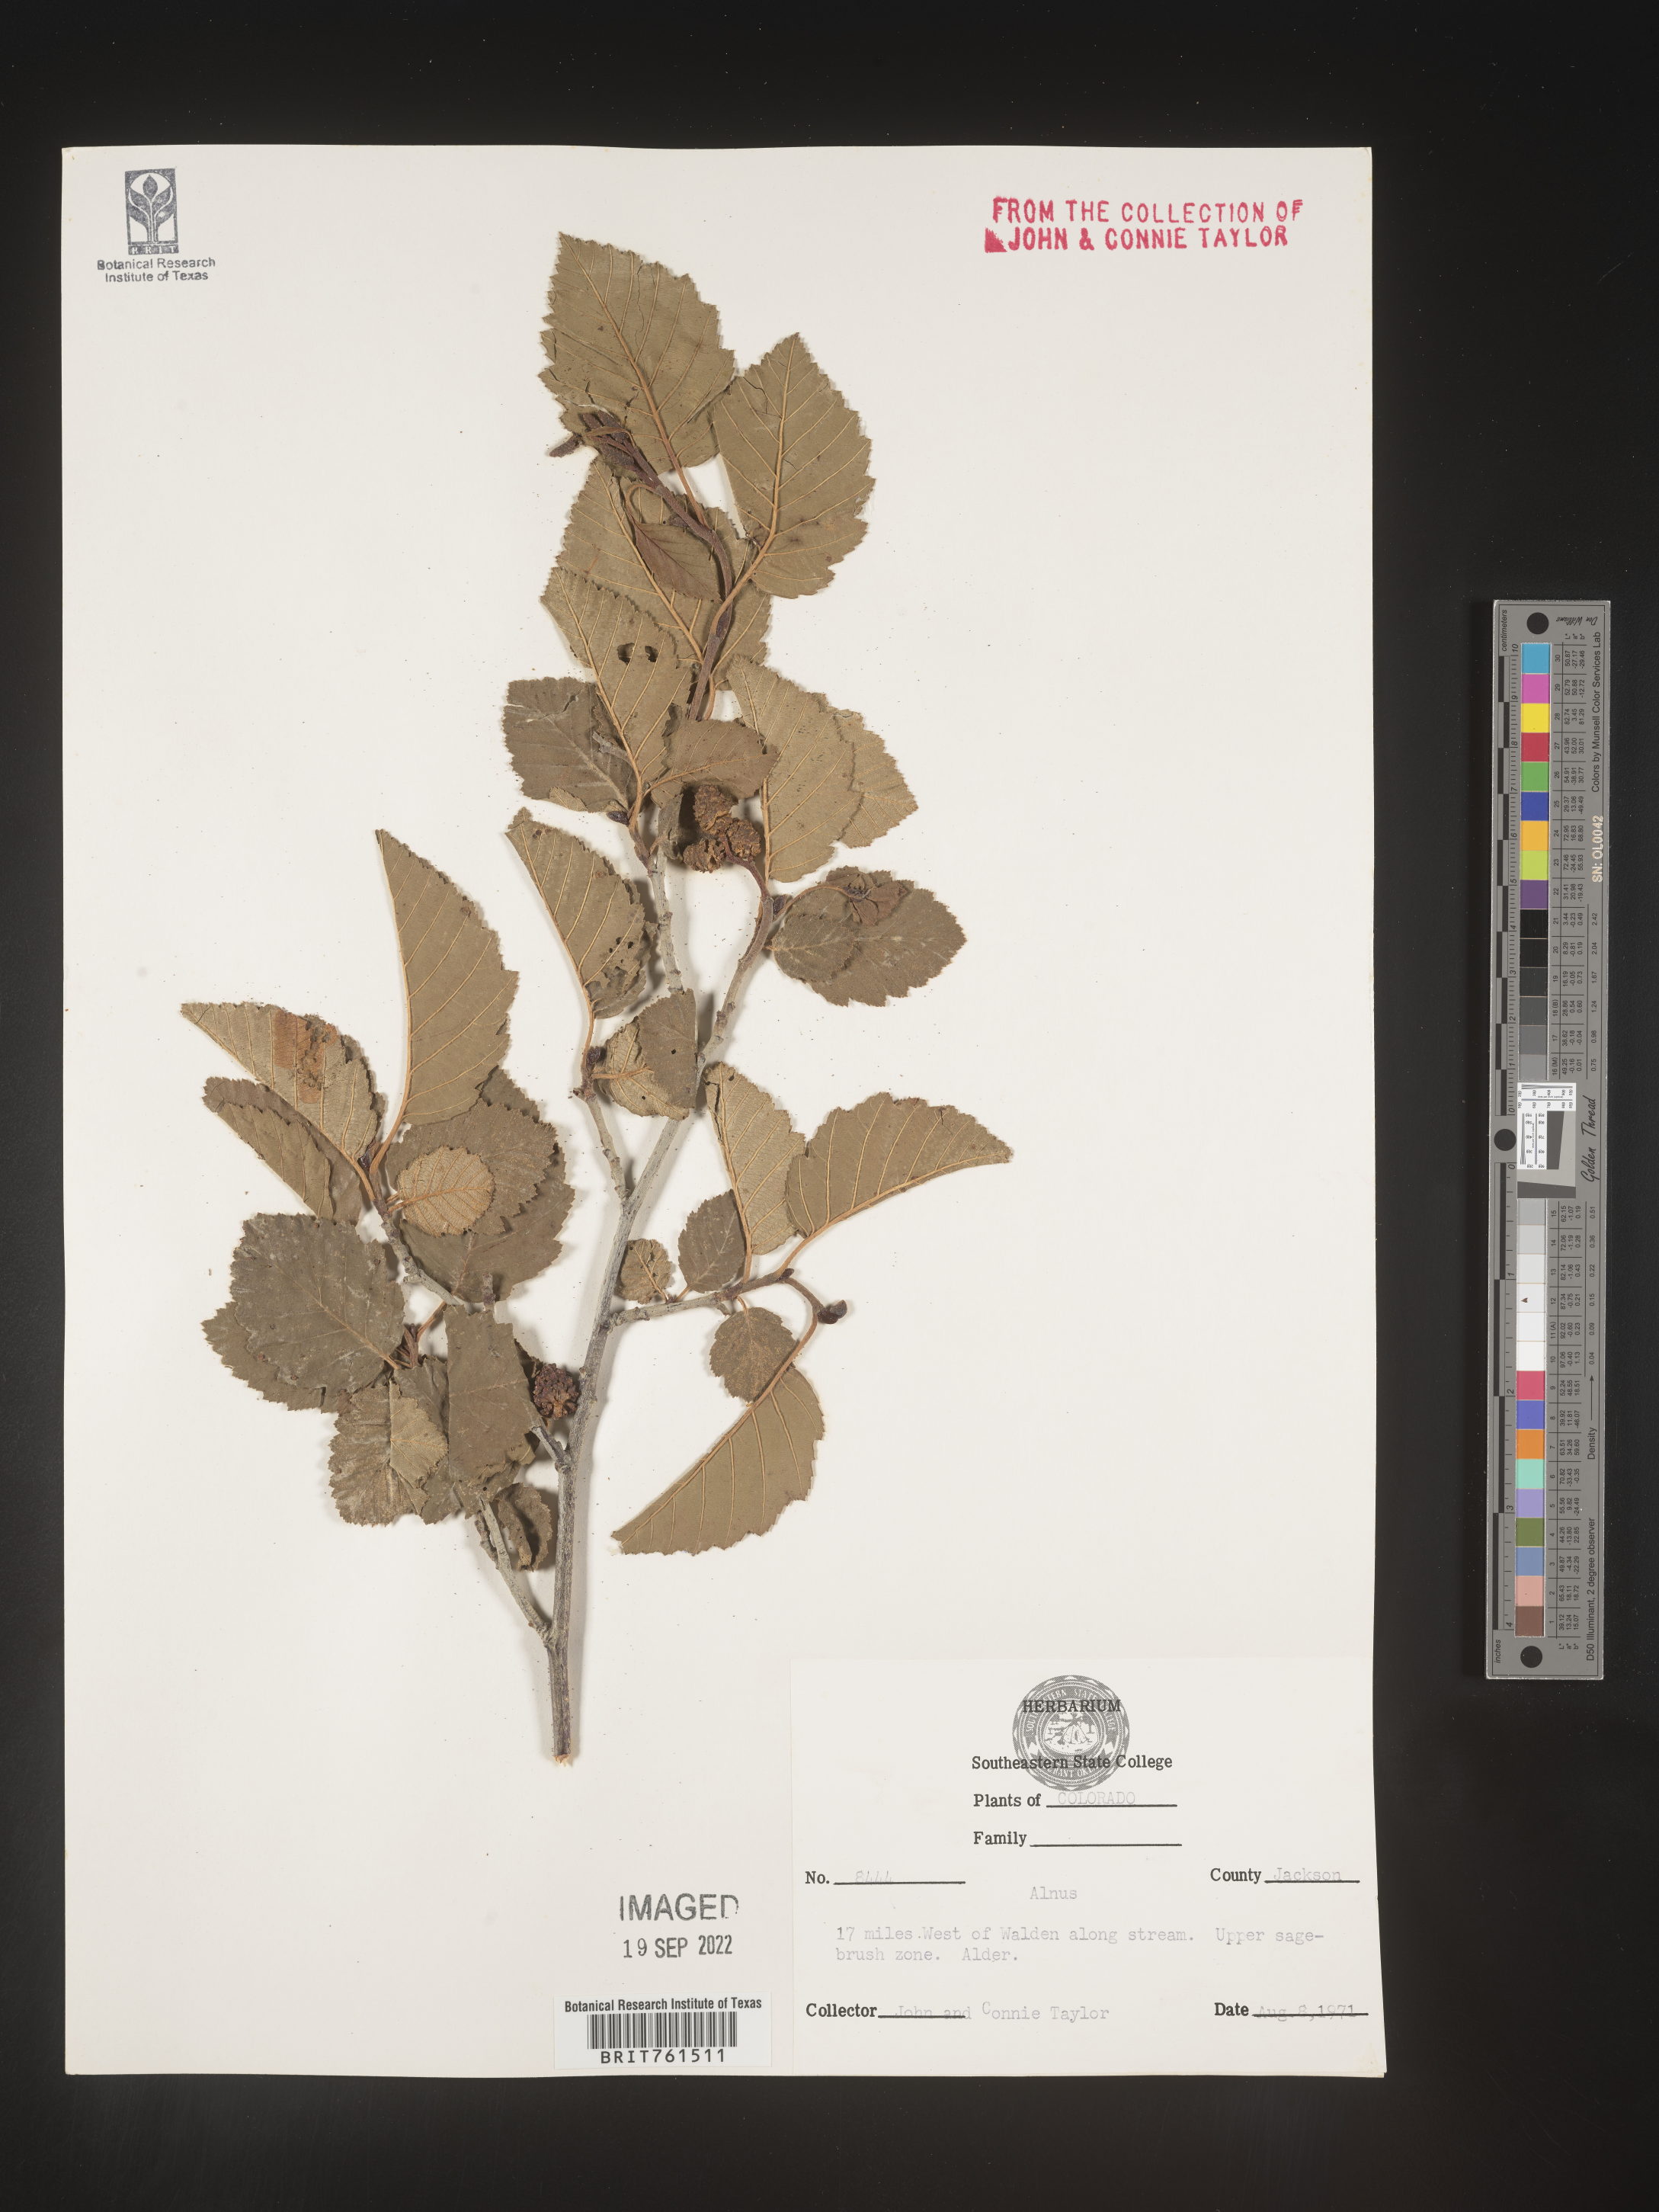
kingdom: Plantae
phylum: Tracheophyta
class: Magnoliopsida
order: Fagales
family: Betulaceae
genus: Alnus
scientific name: Alnus
